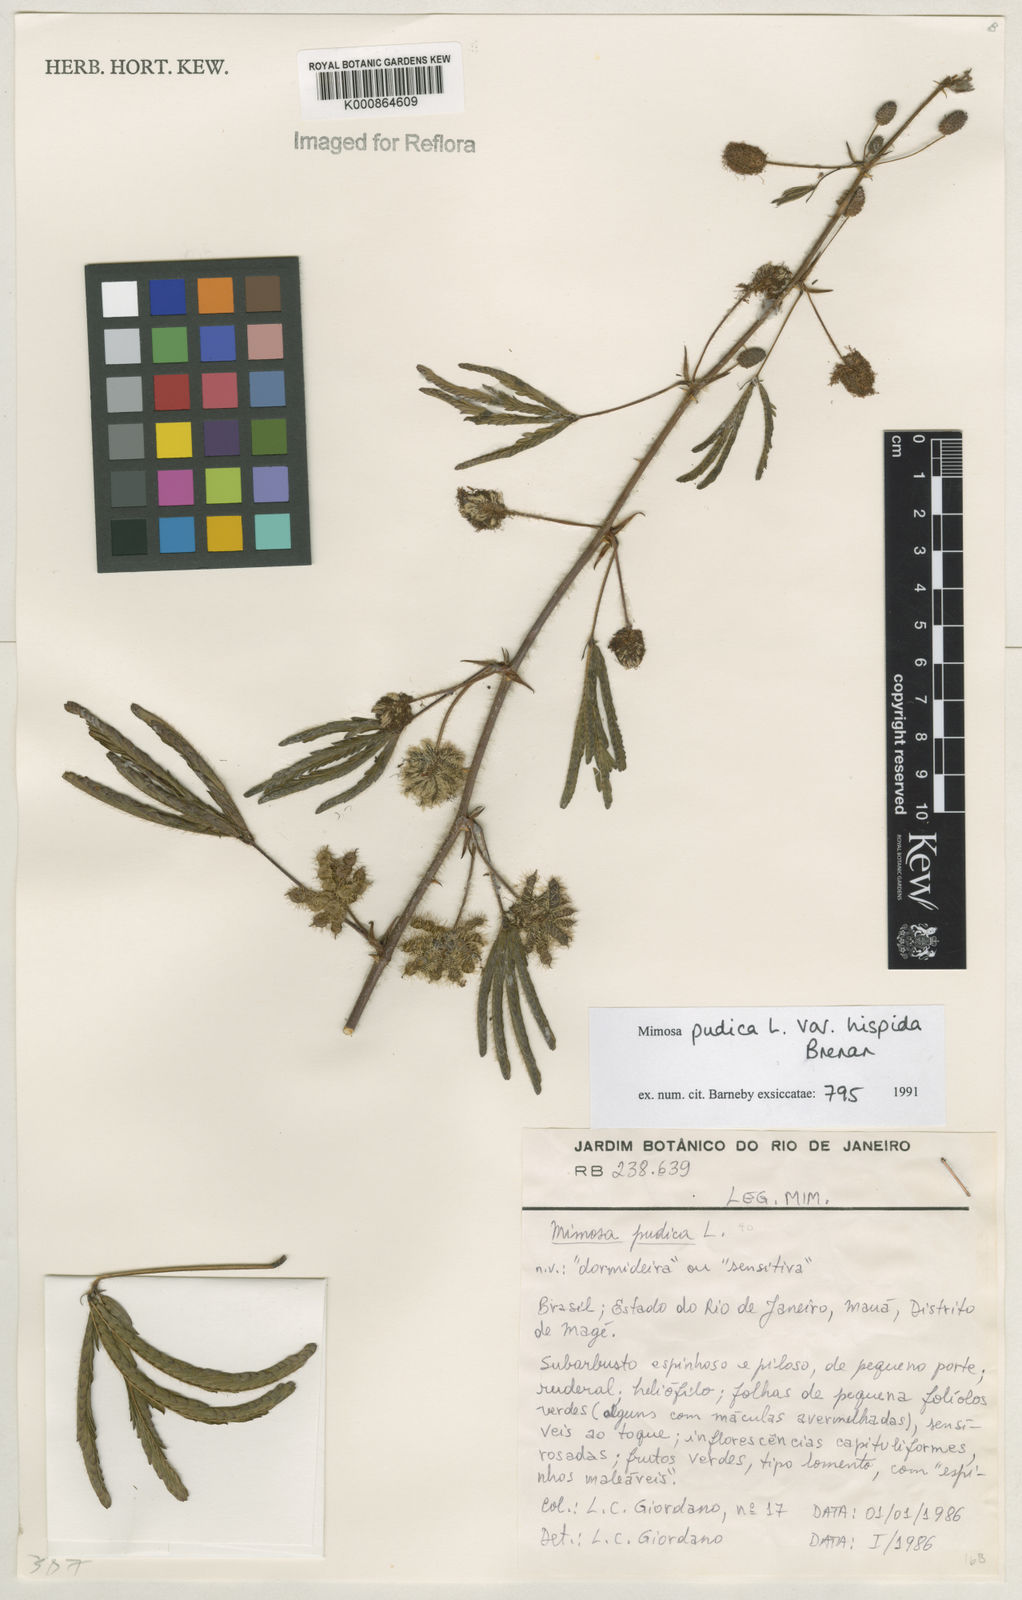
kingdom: Plantae
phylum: Tracheophyta
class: Magnoliopsida
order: Fabales
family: Fabaceae
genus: Mimosa
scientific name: Mimosa pudica
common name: Sensitive plant
